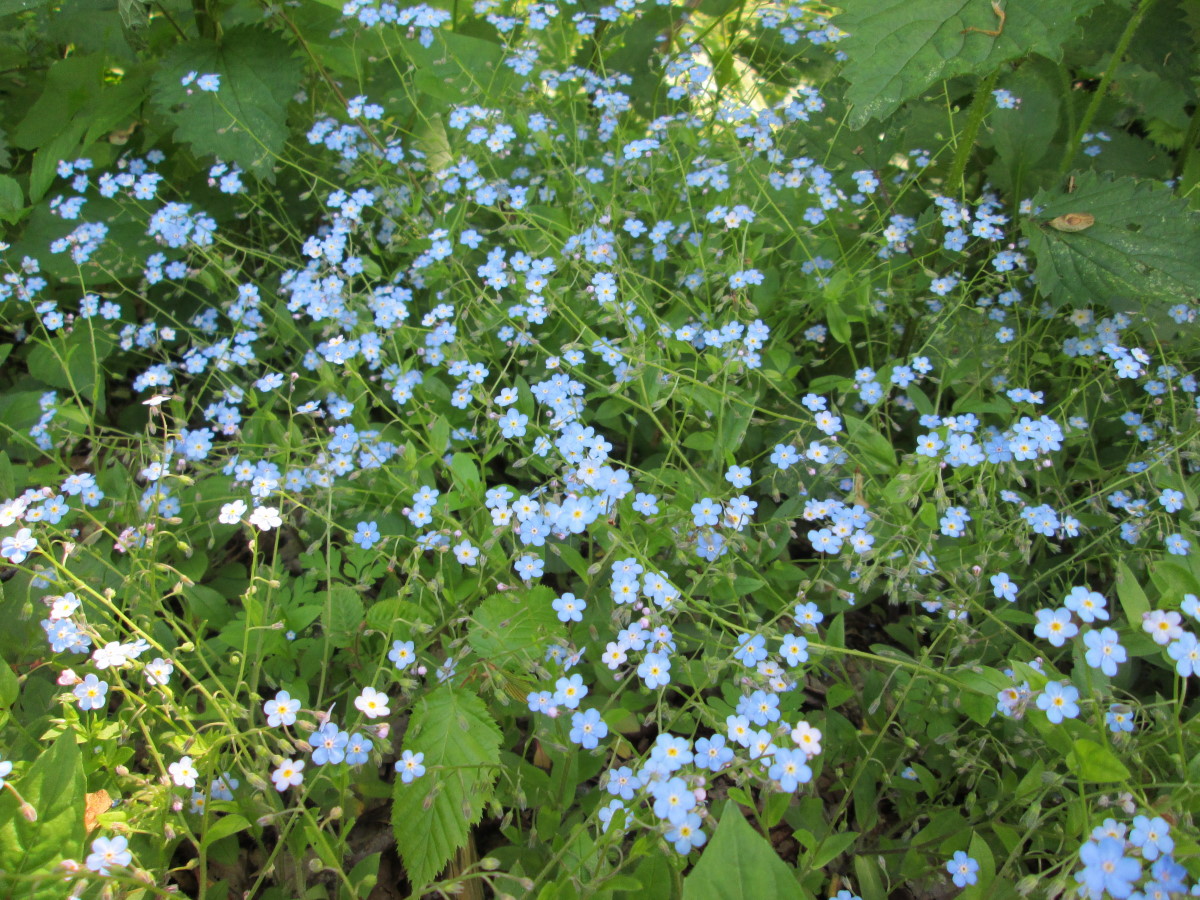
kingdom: Plantae
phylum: Tracheophyta
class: Magnoliopsida
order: Boraginales
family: Boraginaceae
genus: Myosotis
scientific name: Myosotis
